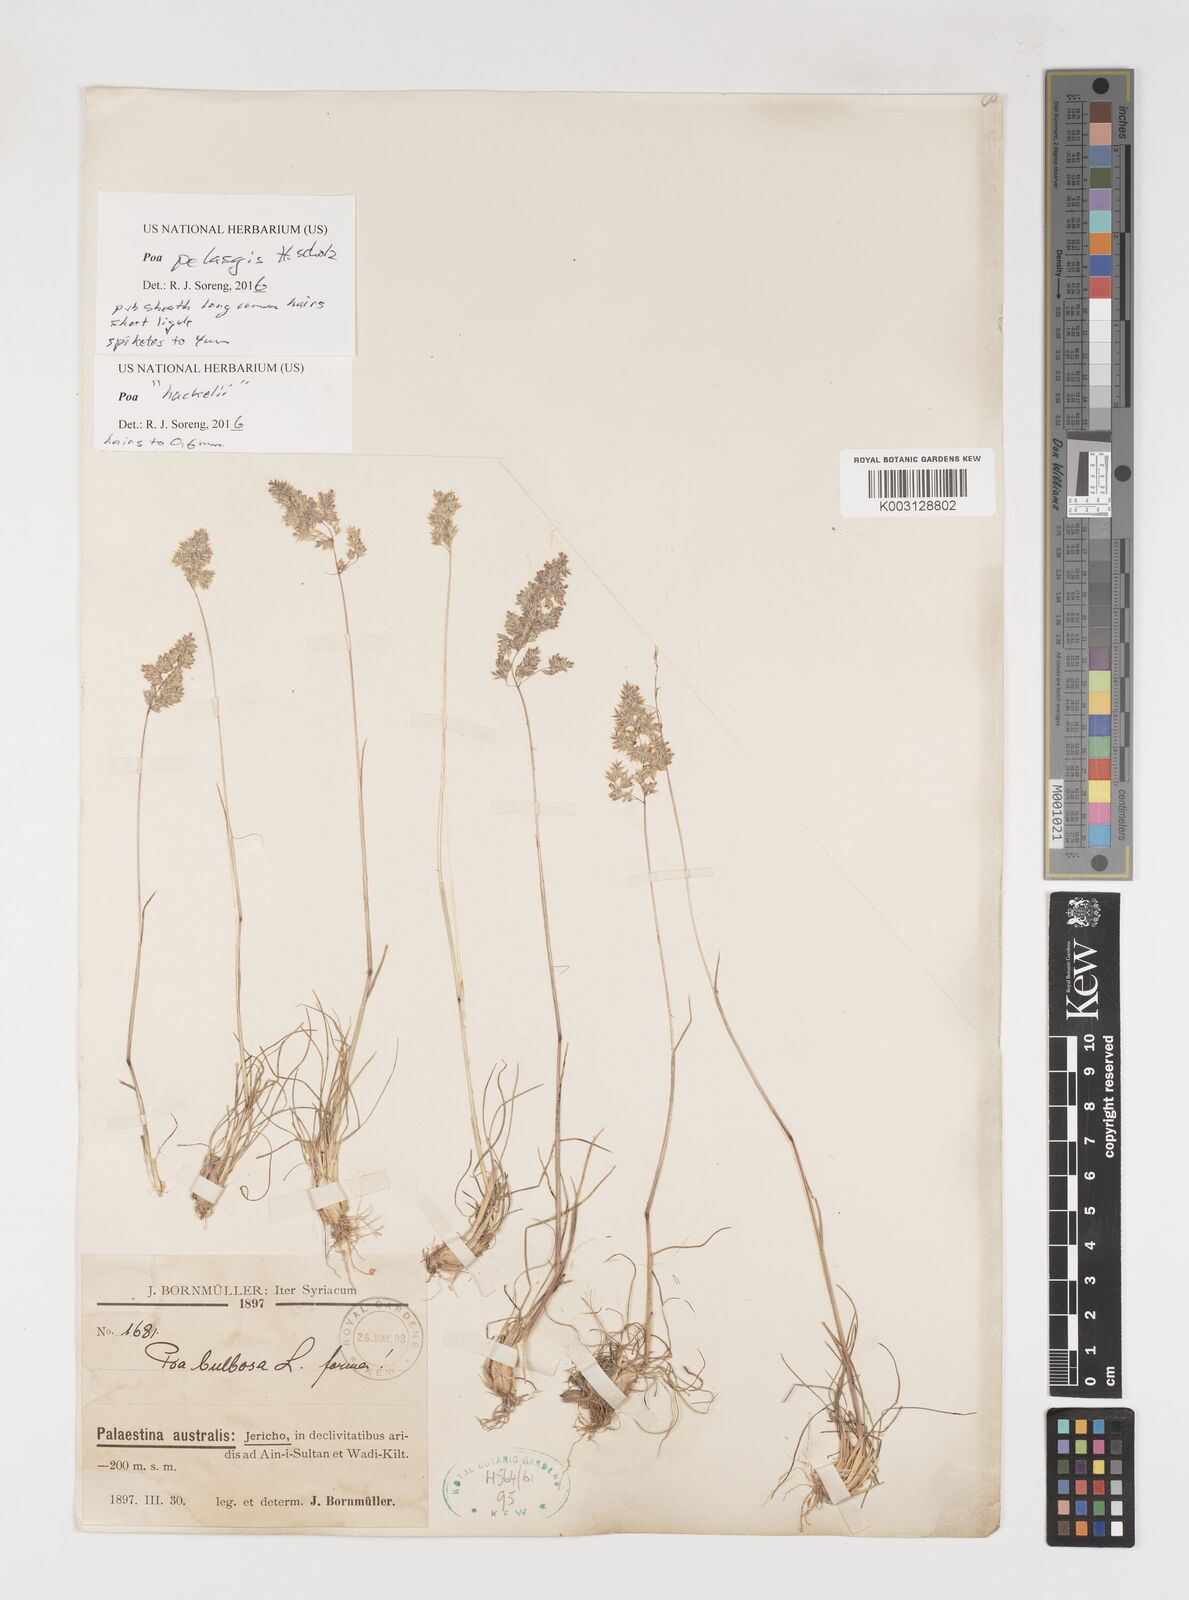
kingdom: Plantae
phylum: Tracheophyta
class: Liliopsida
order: Poales
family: Poaceae
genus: Poa
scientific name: Poa iconia
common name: Konya bluegrass
